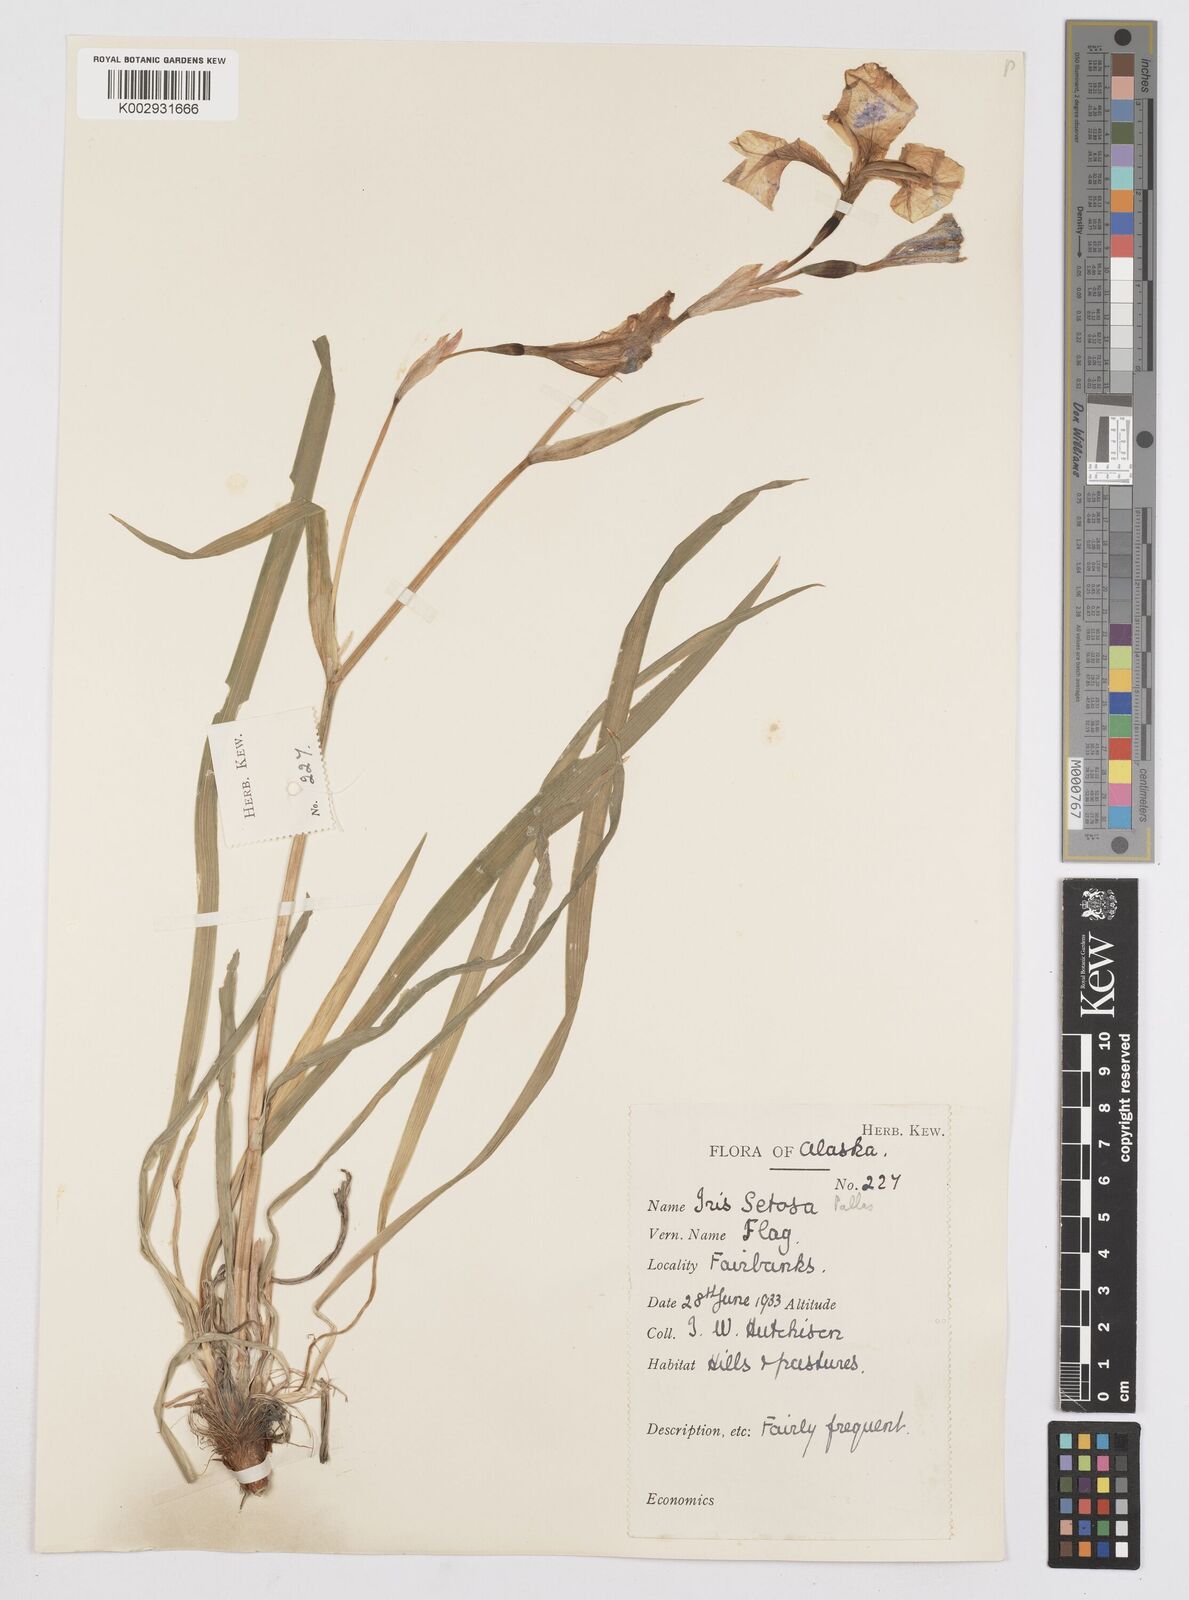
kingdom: Plantae
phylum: Tracheophyta
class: Liliopsida
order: Asparagales
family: Iridaceae
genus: Iris
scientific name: Iris setosa
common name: Arctic blue flag
